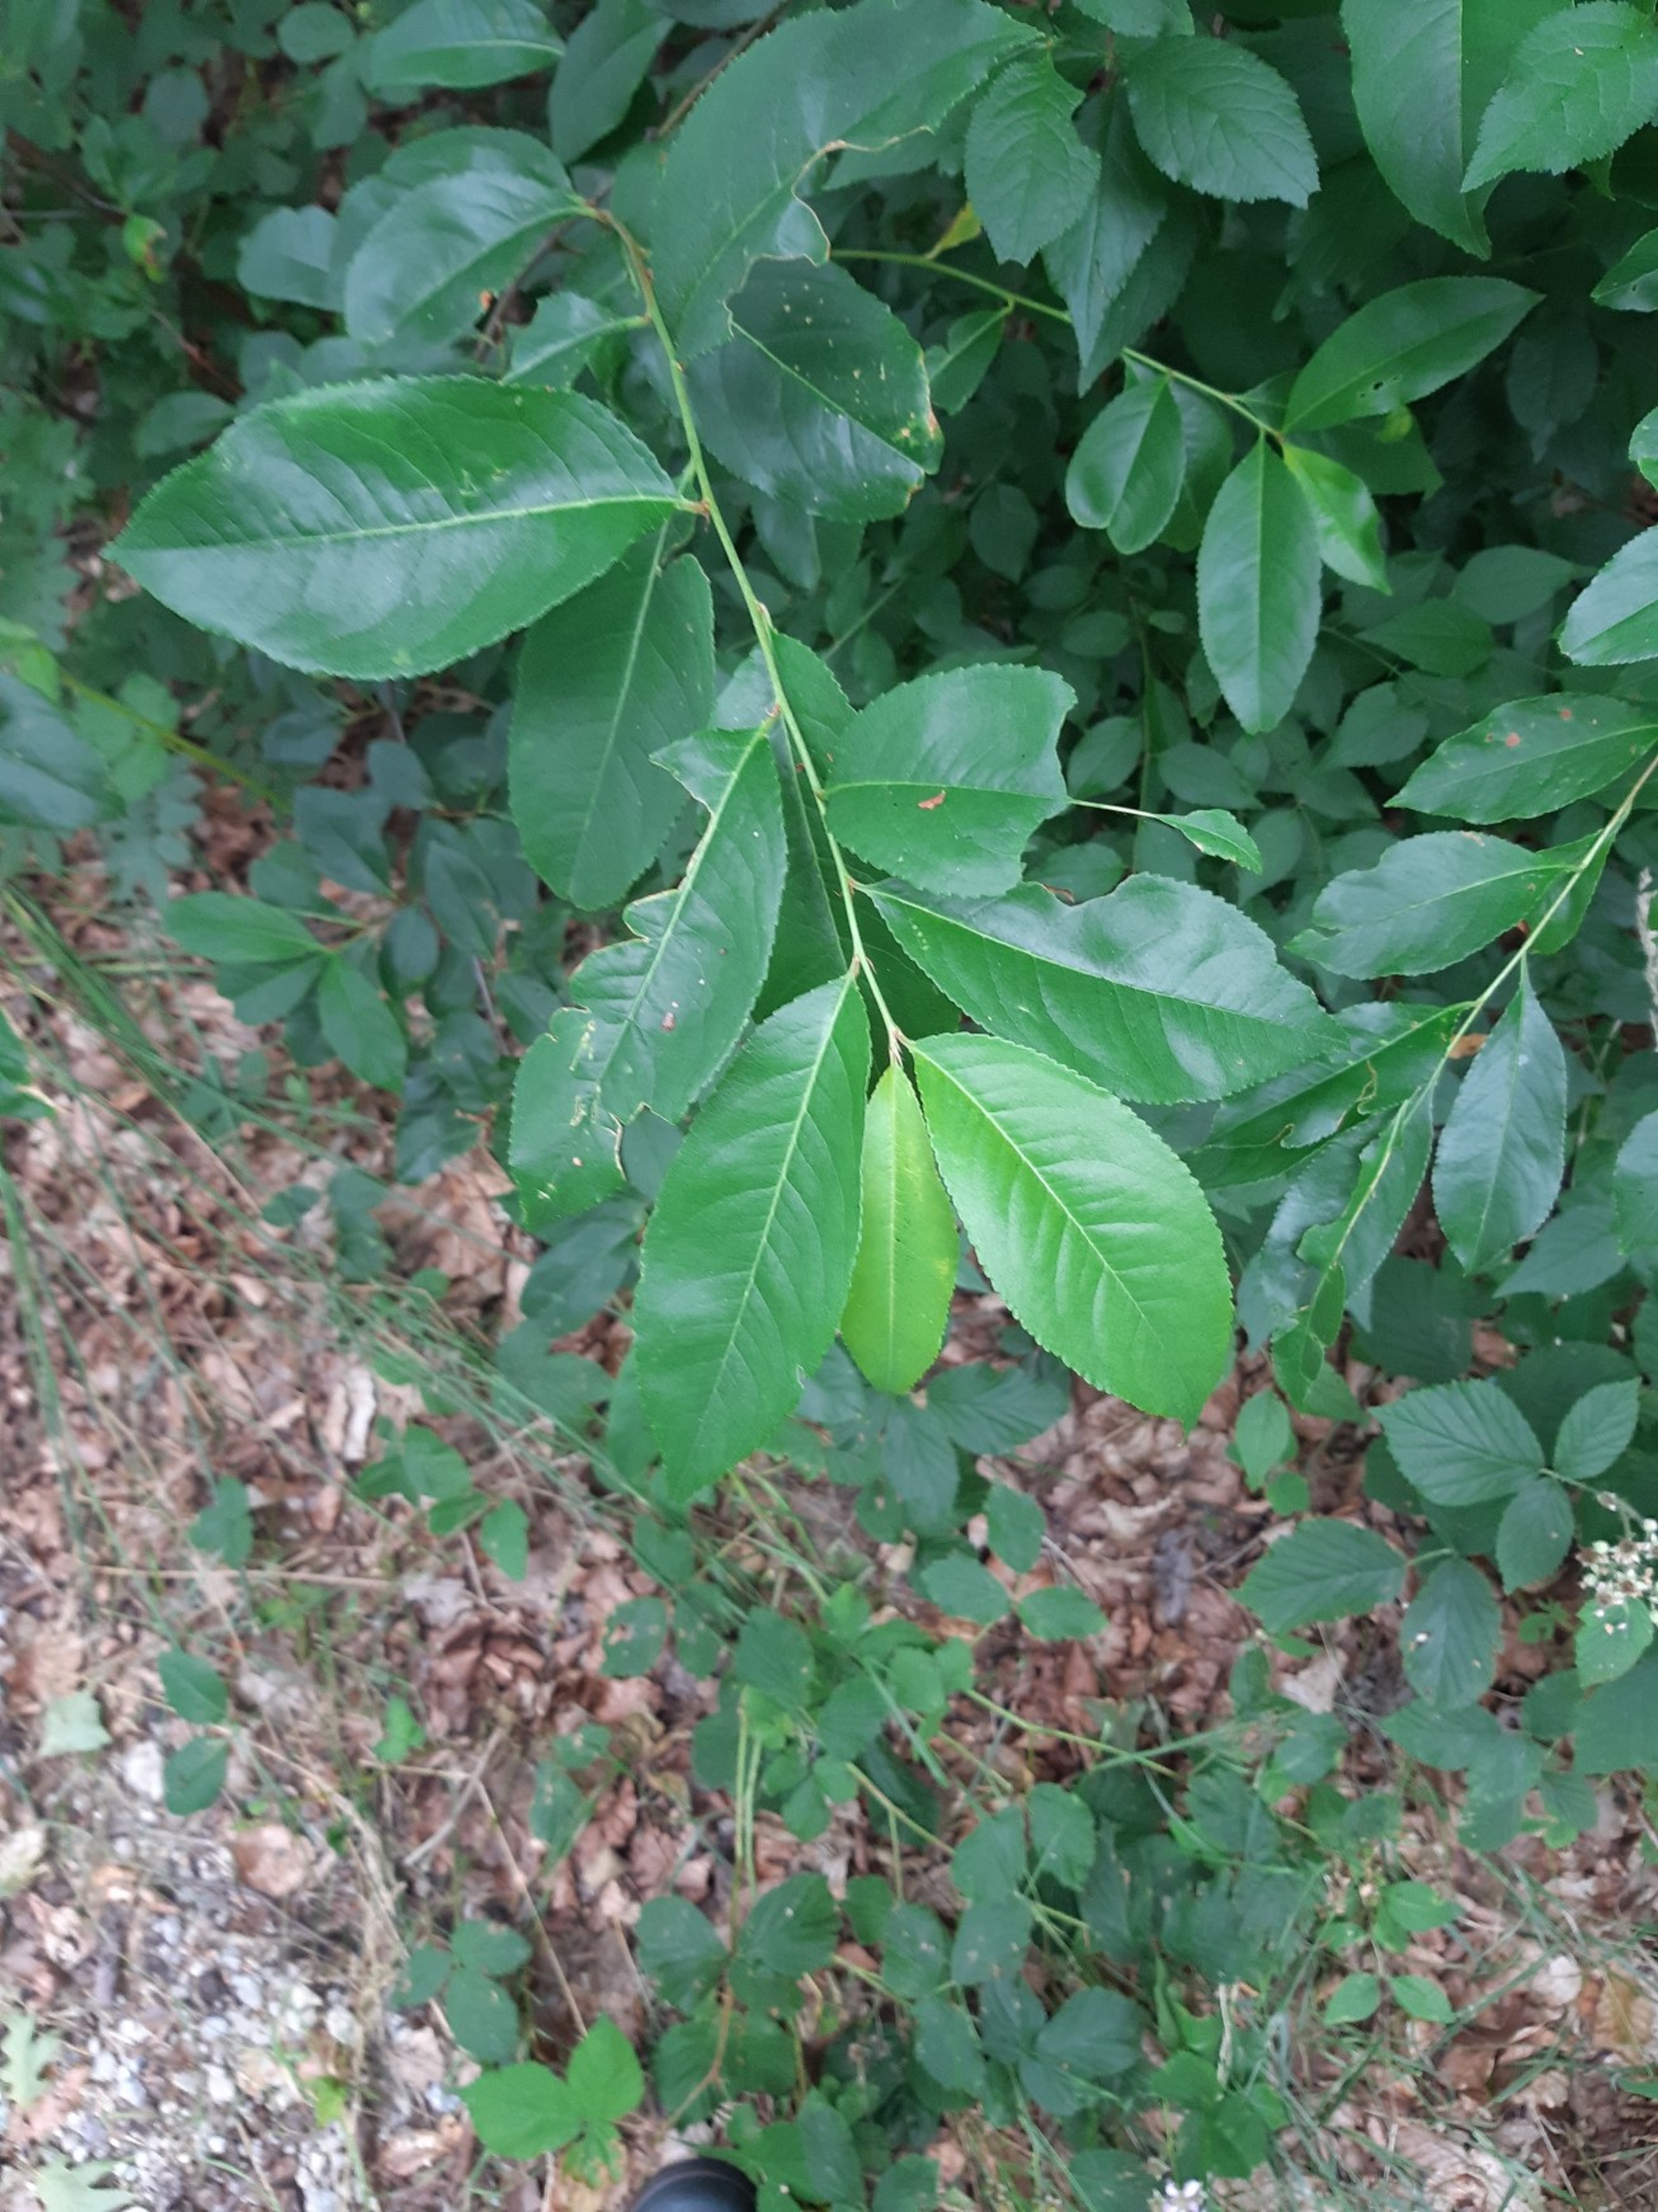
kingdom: Plantae
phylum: Tracheophyta
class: Magnoliopsida
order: Rosales
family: Rosaceae
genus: Prunus
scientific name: Prunus serotina
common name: Glansbladet hæg
